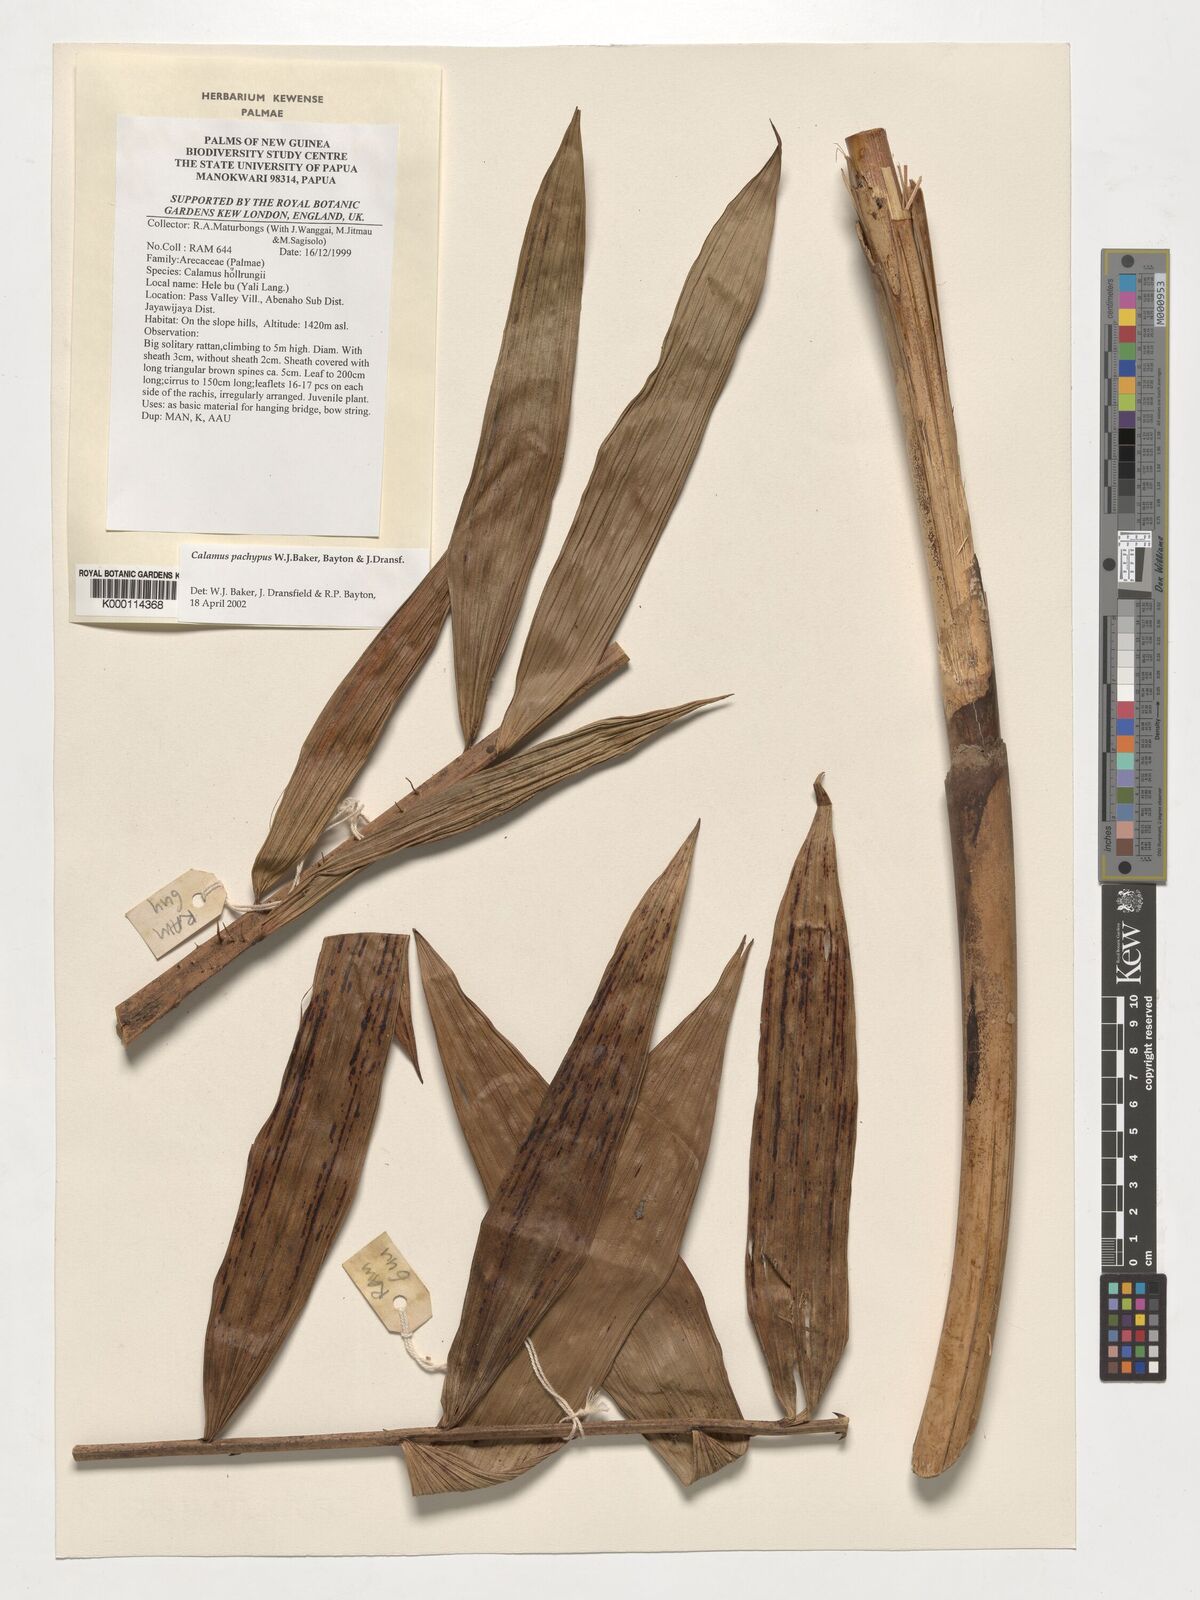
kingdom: Plantae
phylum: Tracheophyta
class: Liliopsida
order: Arecales
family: Arecaceae
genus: Calamus
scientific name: Calamus
